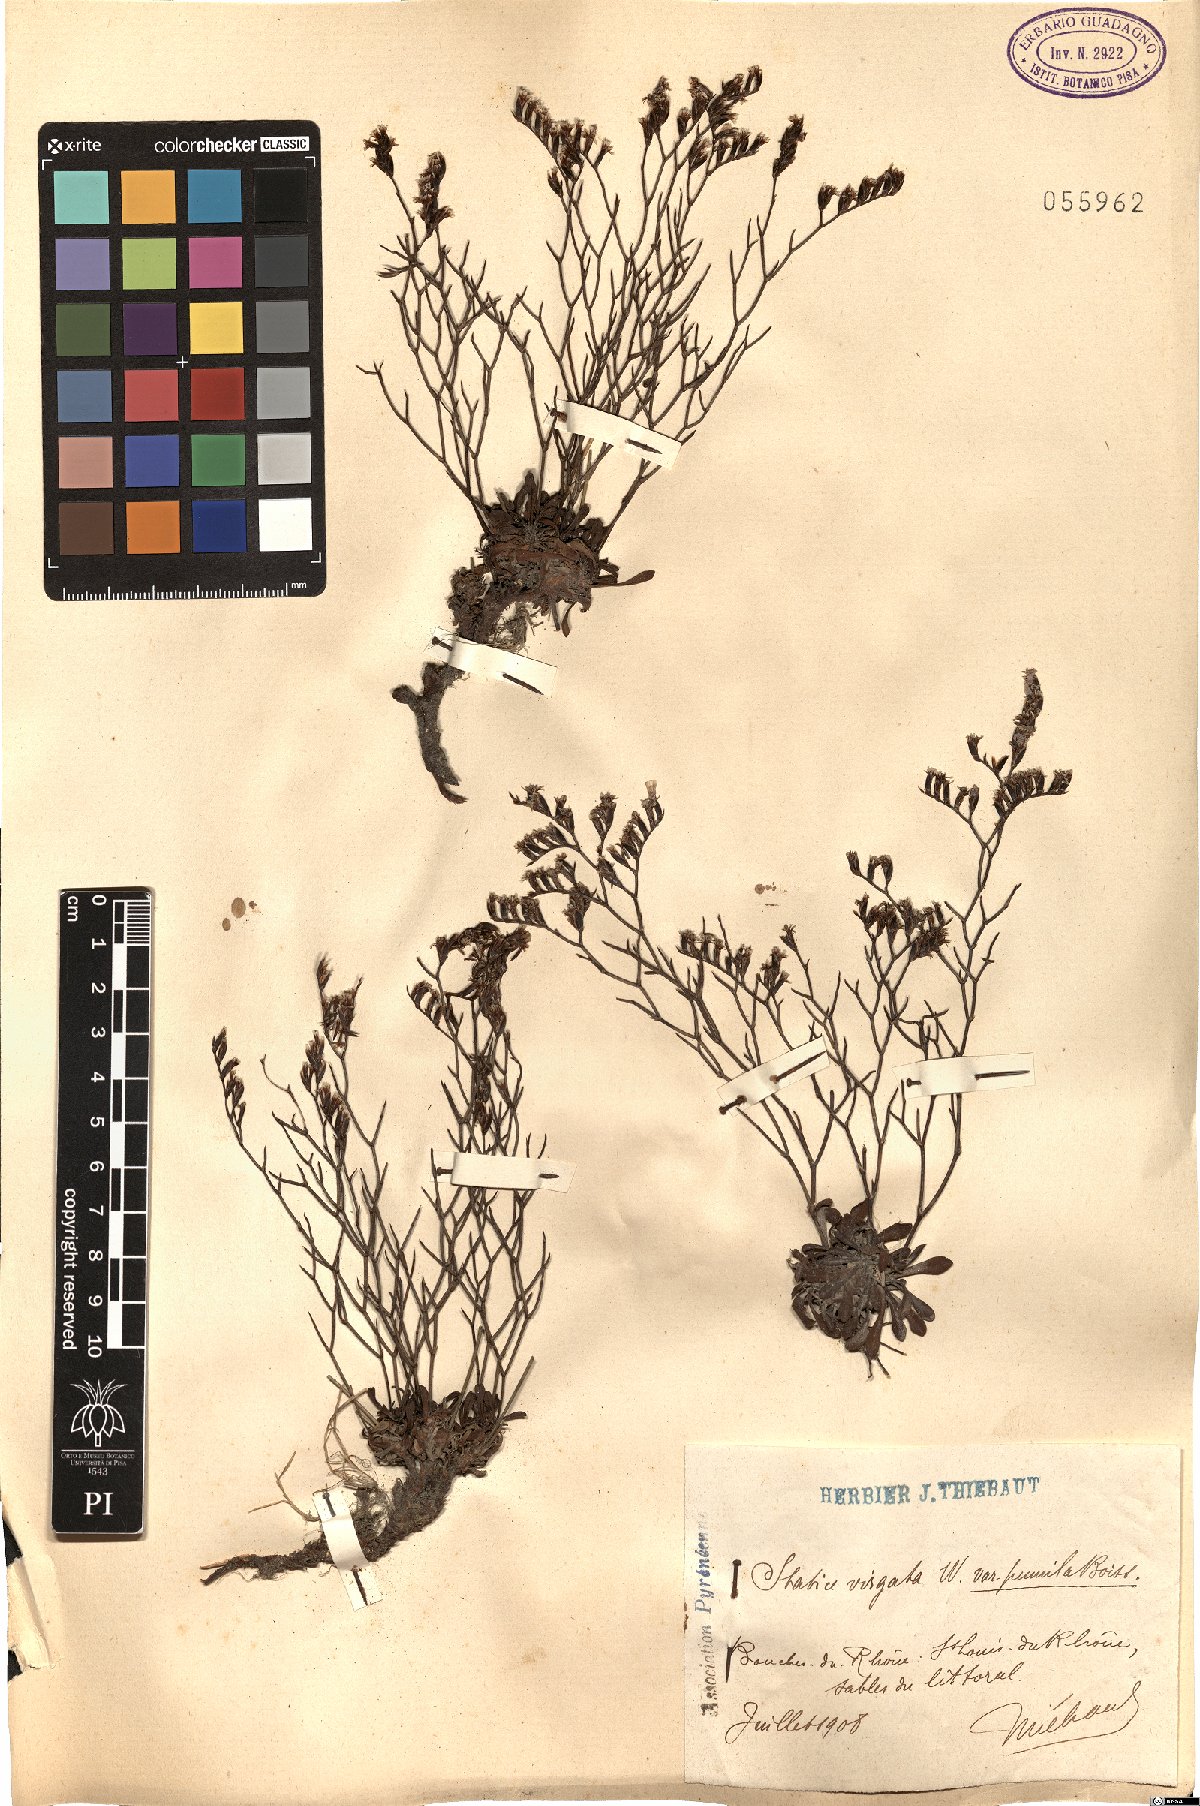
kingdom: Plantae
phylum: Tracheophyta
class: Magnoliopsida
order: Caryophyllales
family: Plumbaginaceae
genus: Limonium
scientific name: Limonium acutifolium
